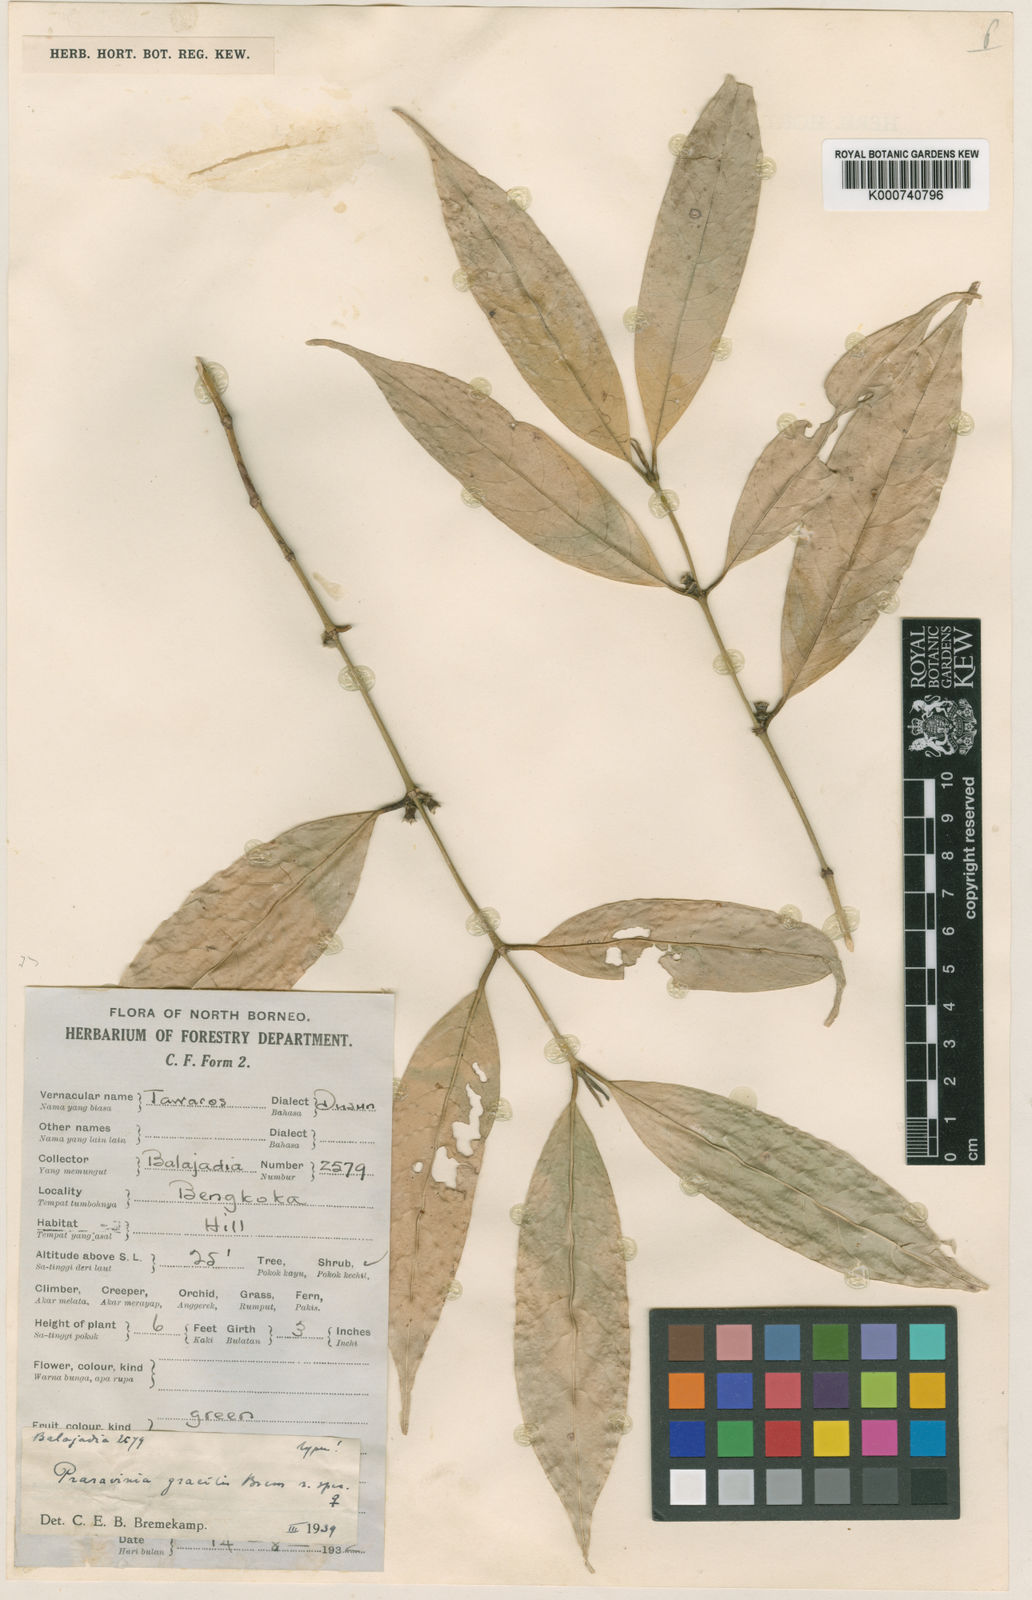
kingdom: Plantae
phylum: Tracheophyta
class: Magnoliopsida
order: Gentianales
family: Rubiaceae
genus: Praravinia
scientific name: Praravinia gracilis
